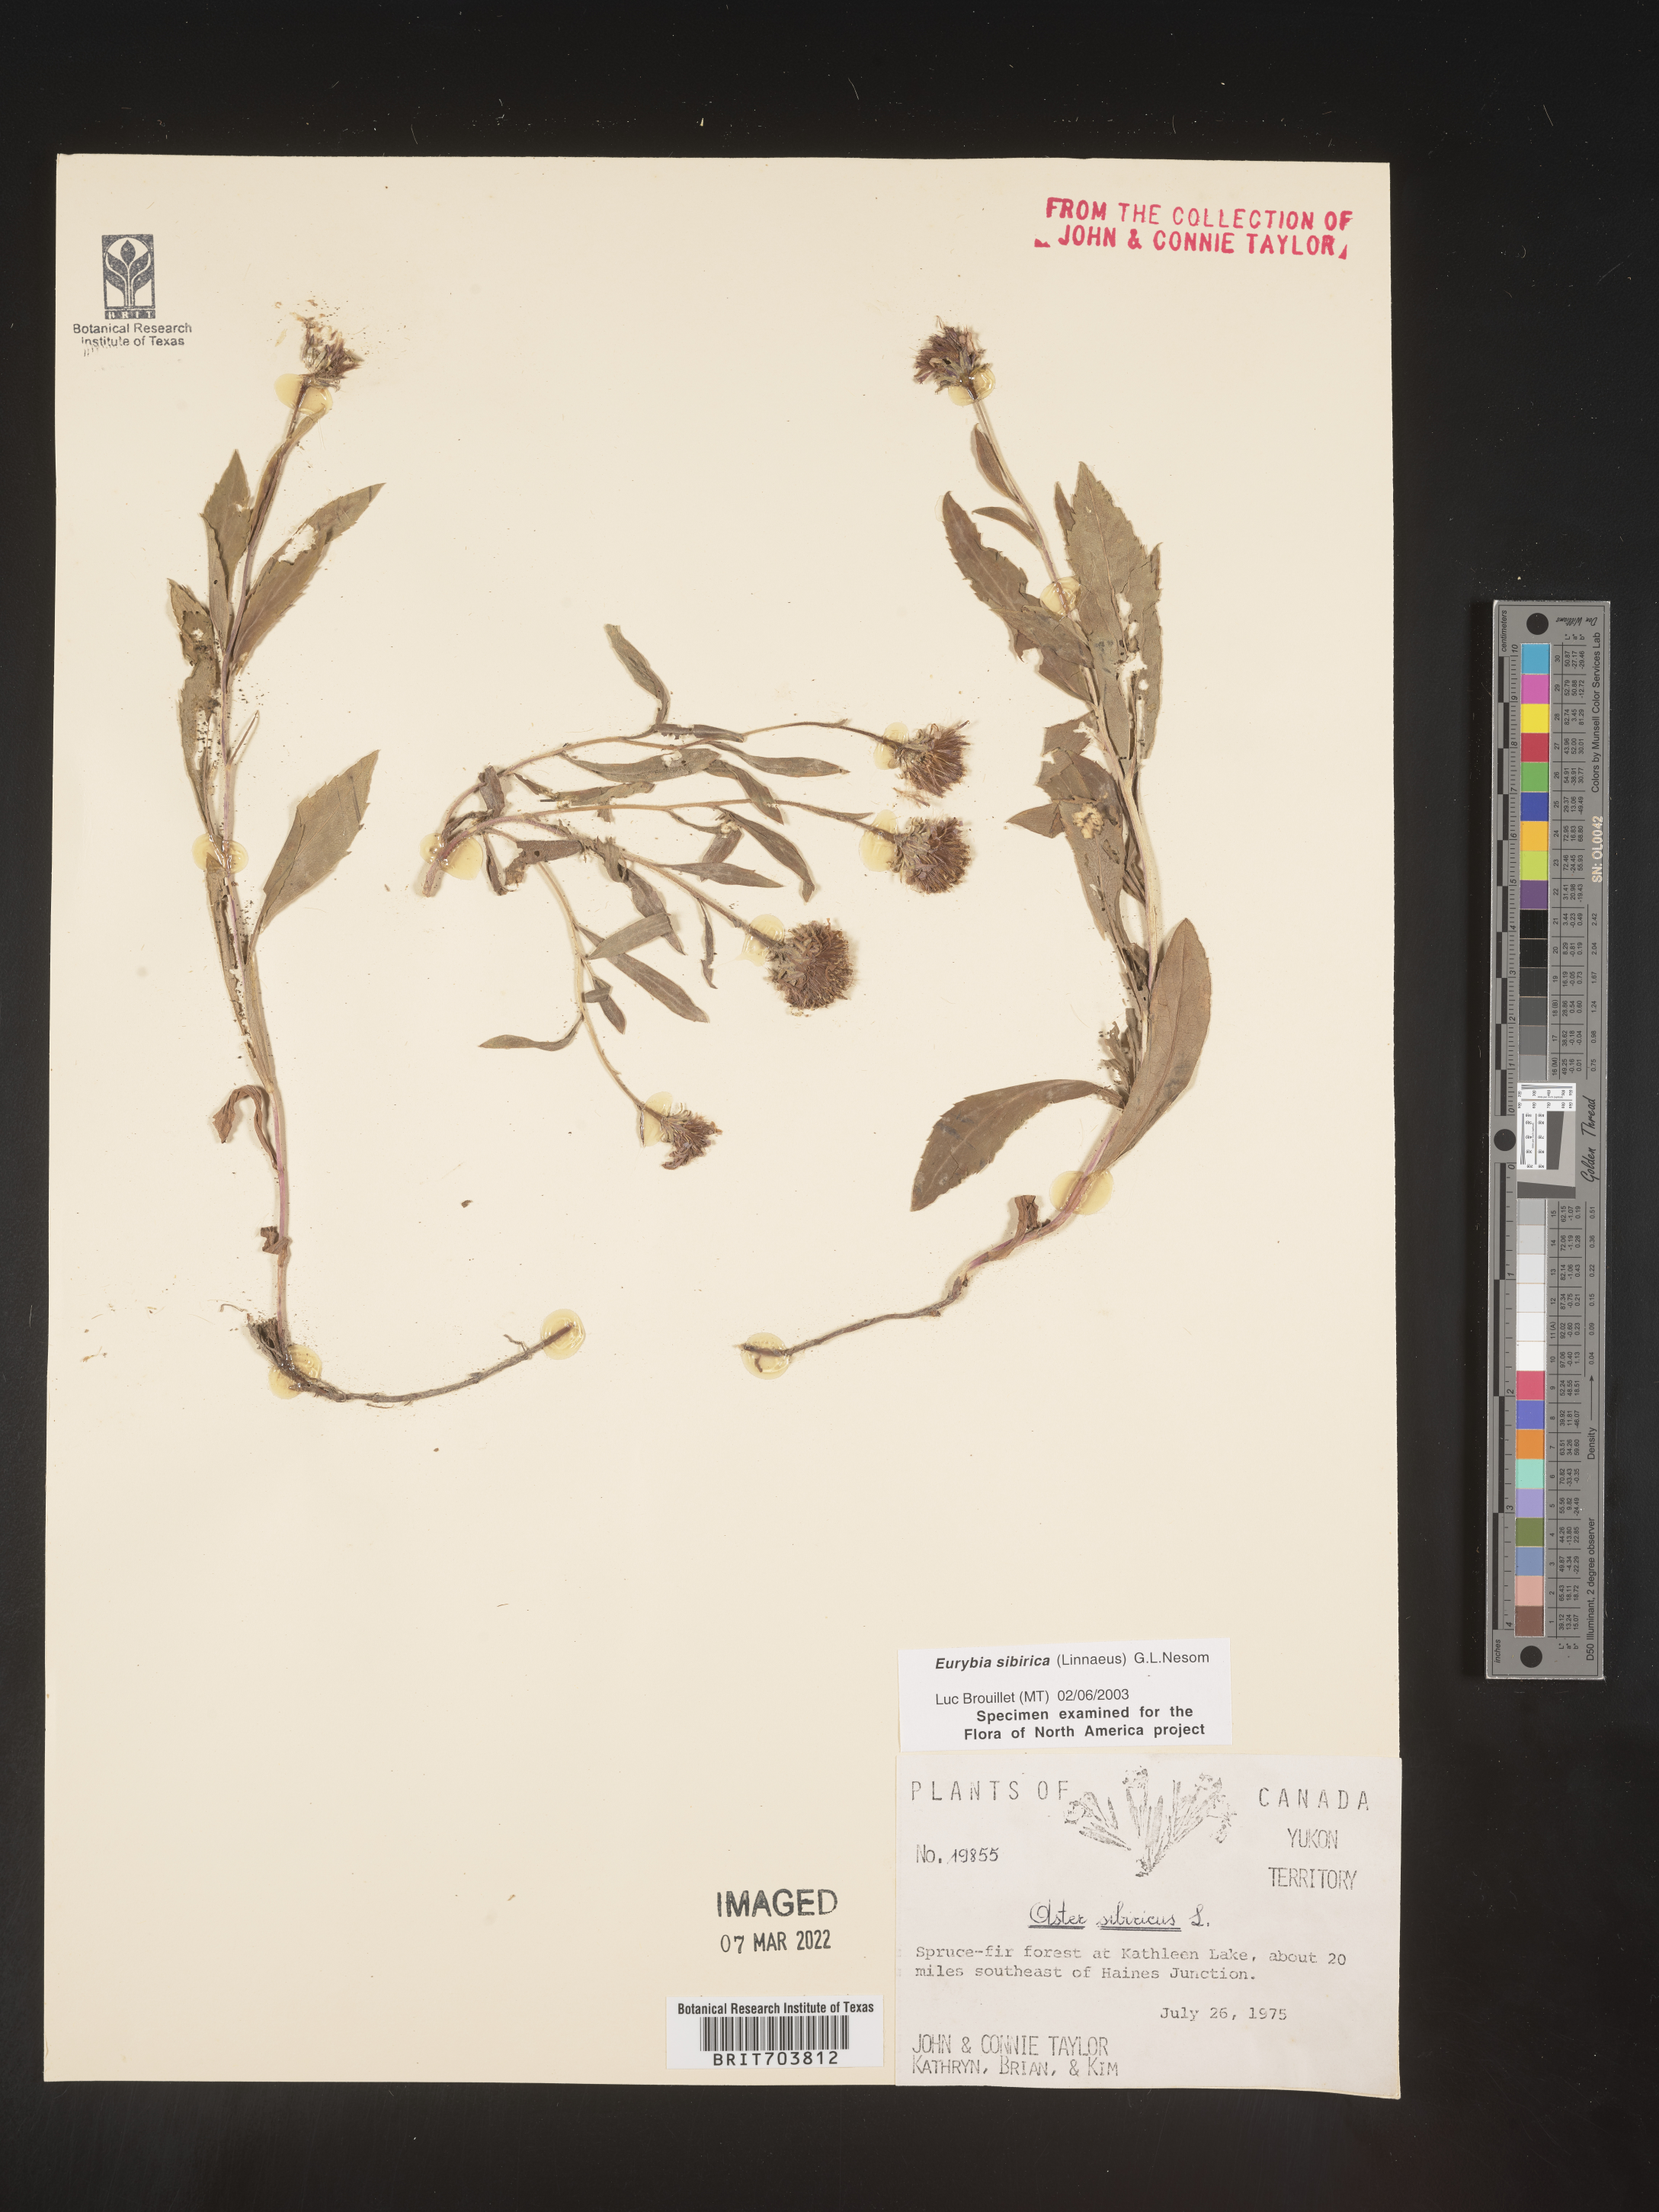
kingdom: Plantae
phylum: Tracheophyta
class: Magnoliopsida
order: Asterales
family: Asteraceae
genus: Eurybia
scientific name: Eurybia sibirica
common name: Arctic aster
